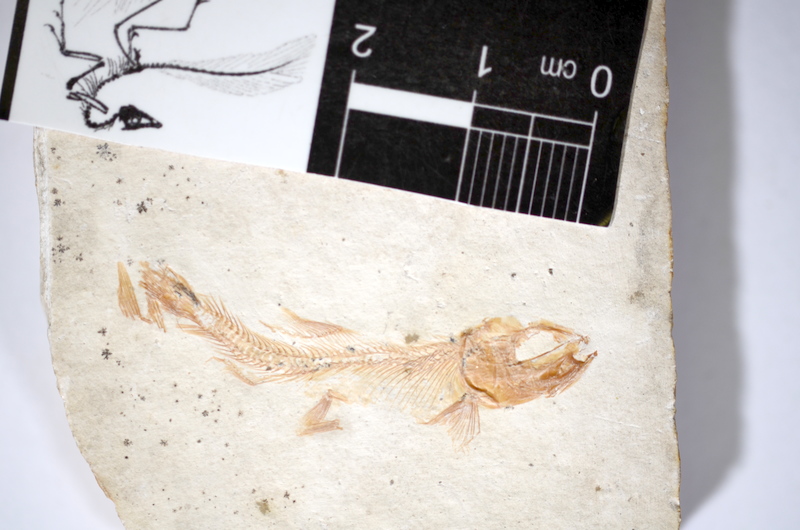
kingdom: Animalia
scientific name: Animalia
